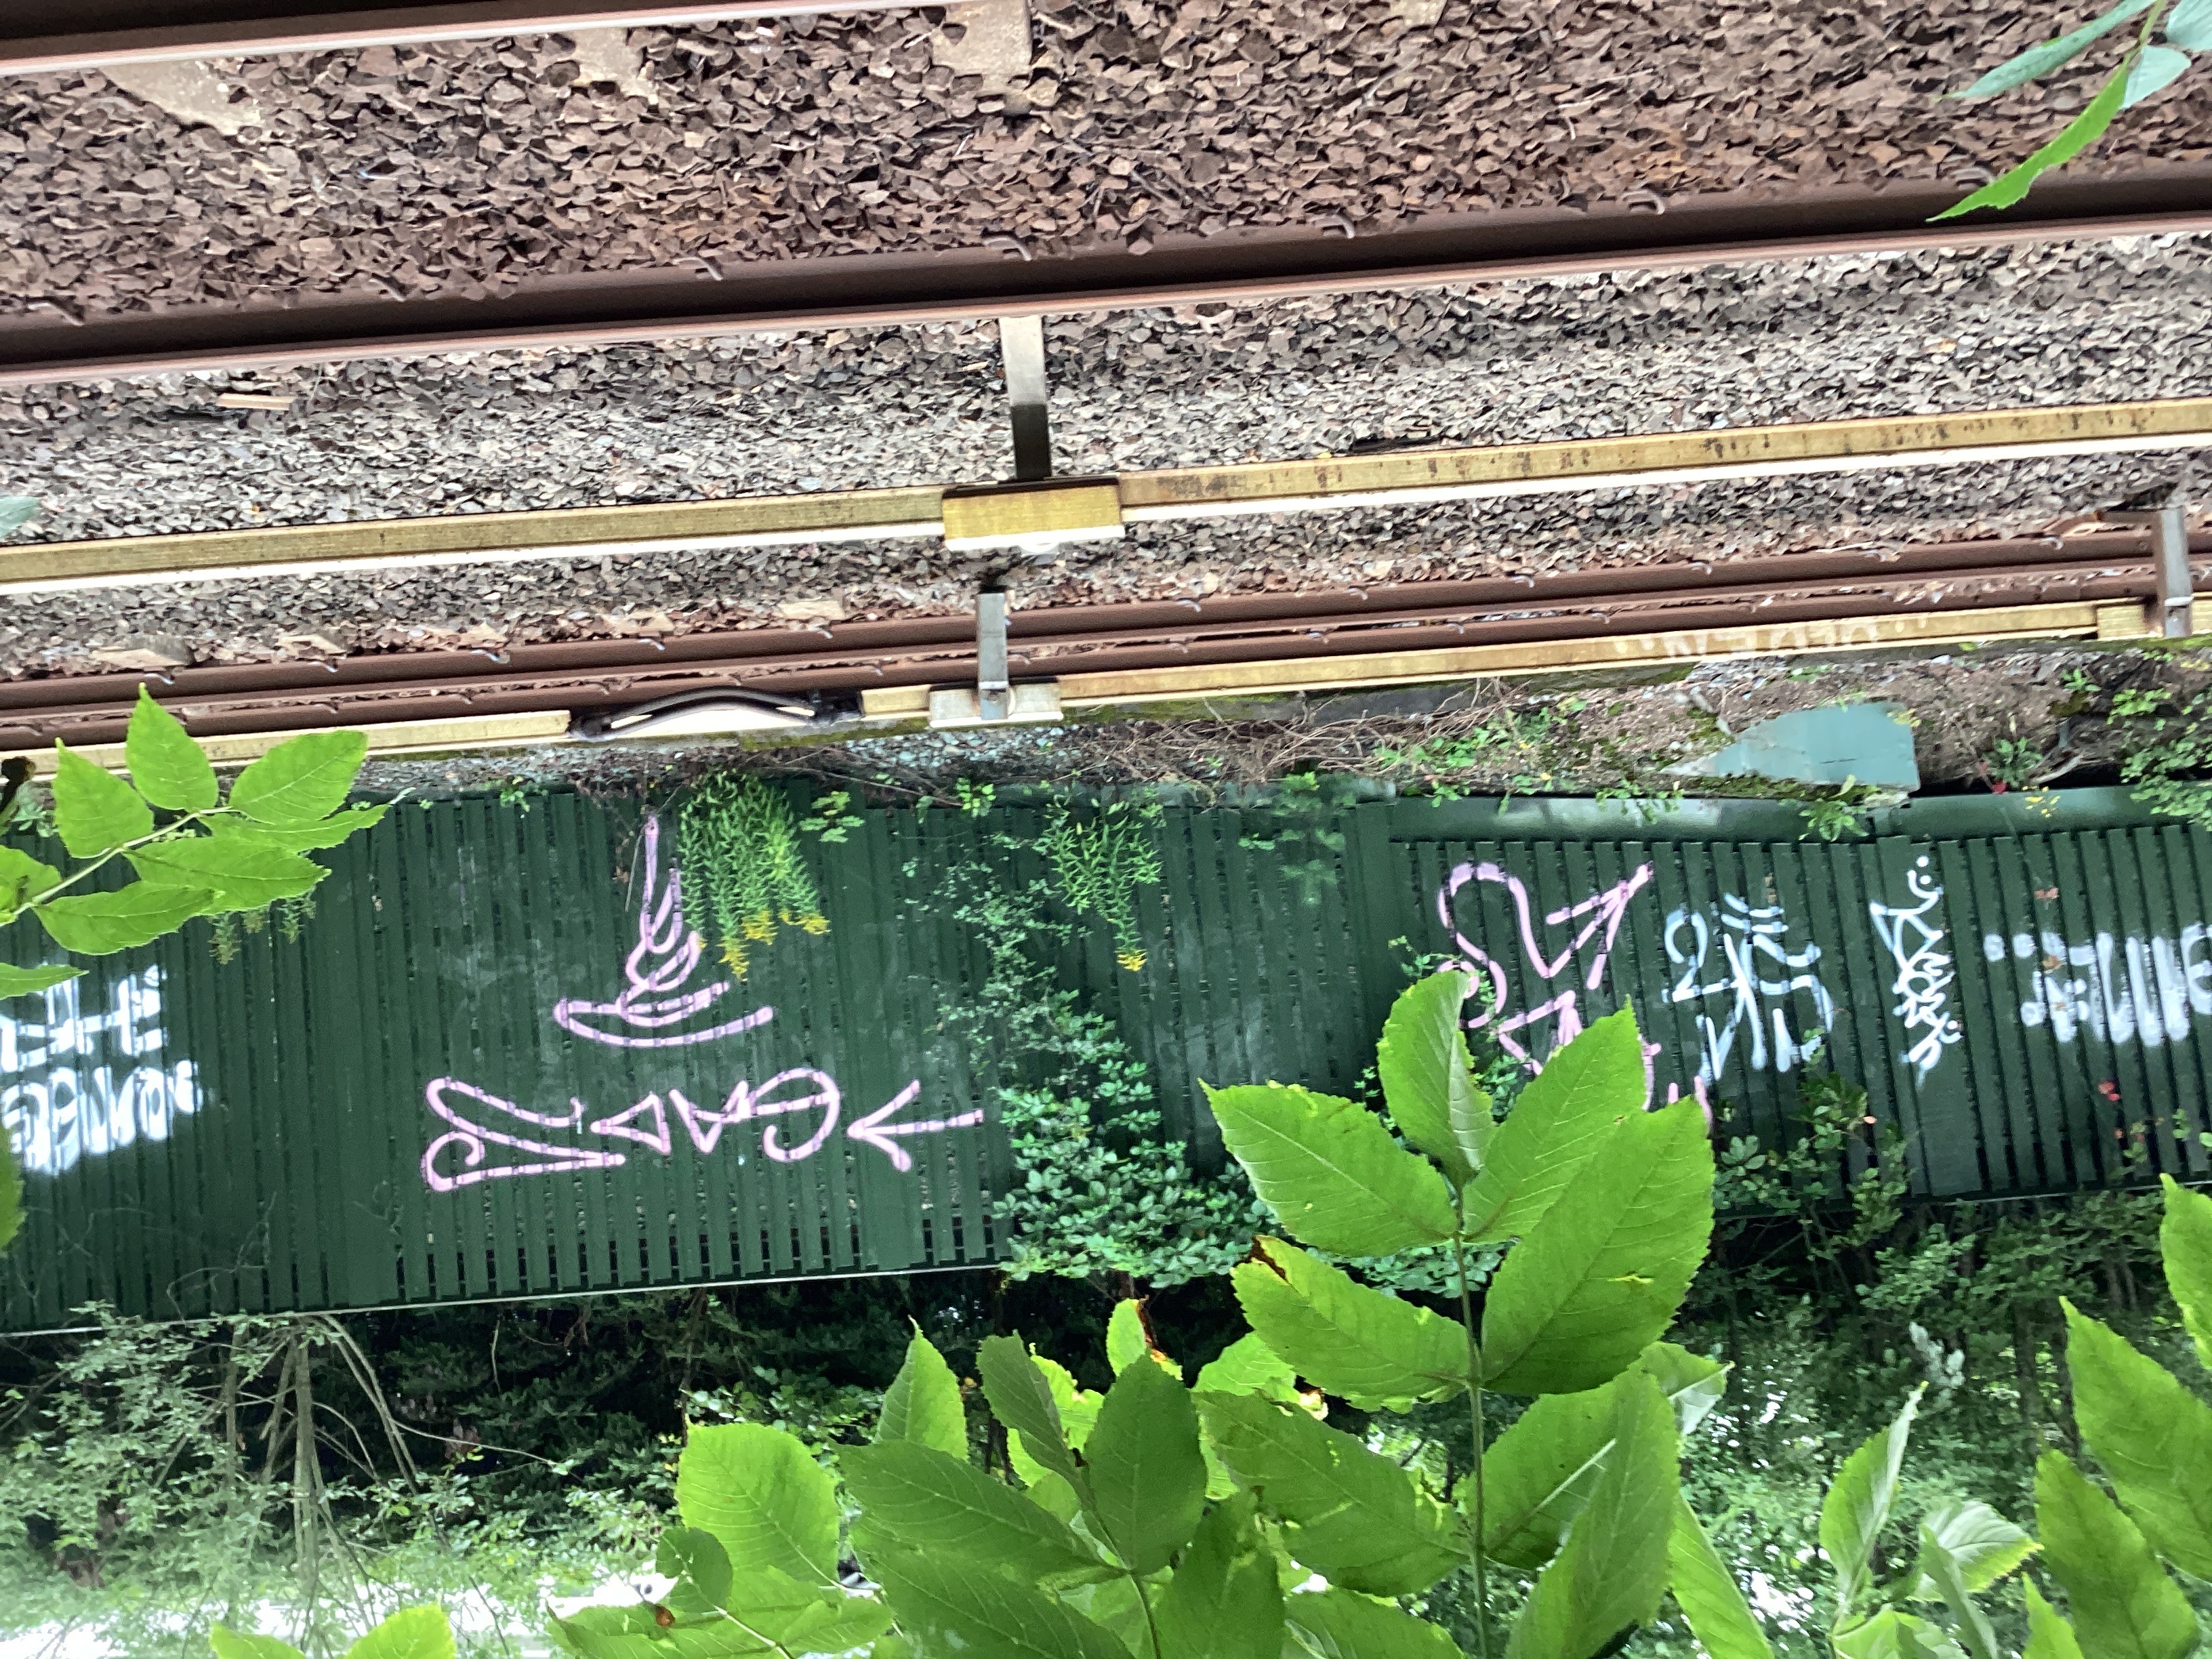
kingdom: Plantae
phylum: Tracheophyta
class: Magnoliopsida
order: Asterales
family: Asteraceae
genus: Solidago
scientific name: Solidago canadensis
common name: kanadagullris
